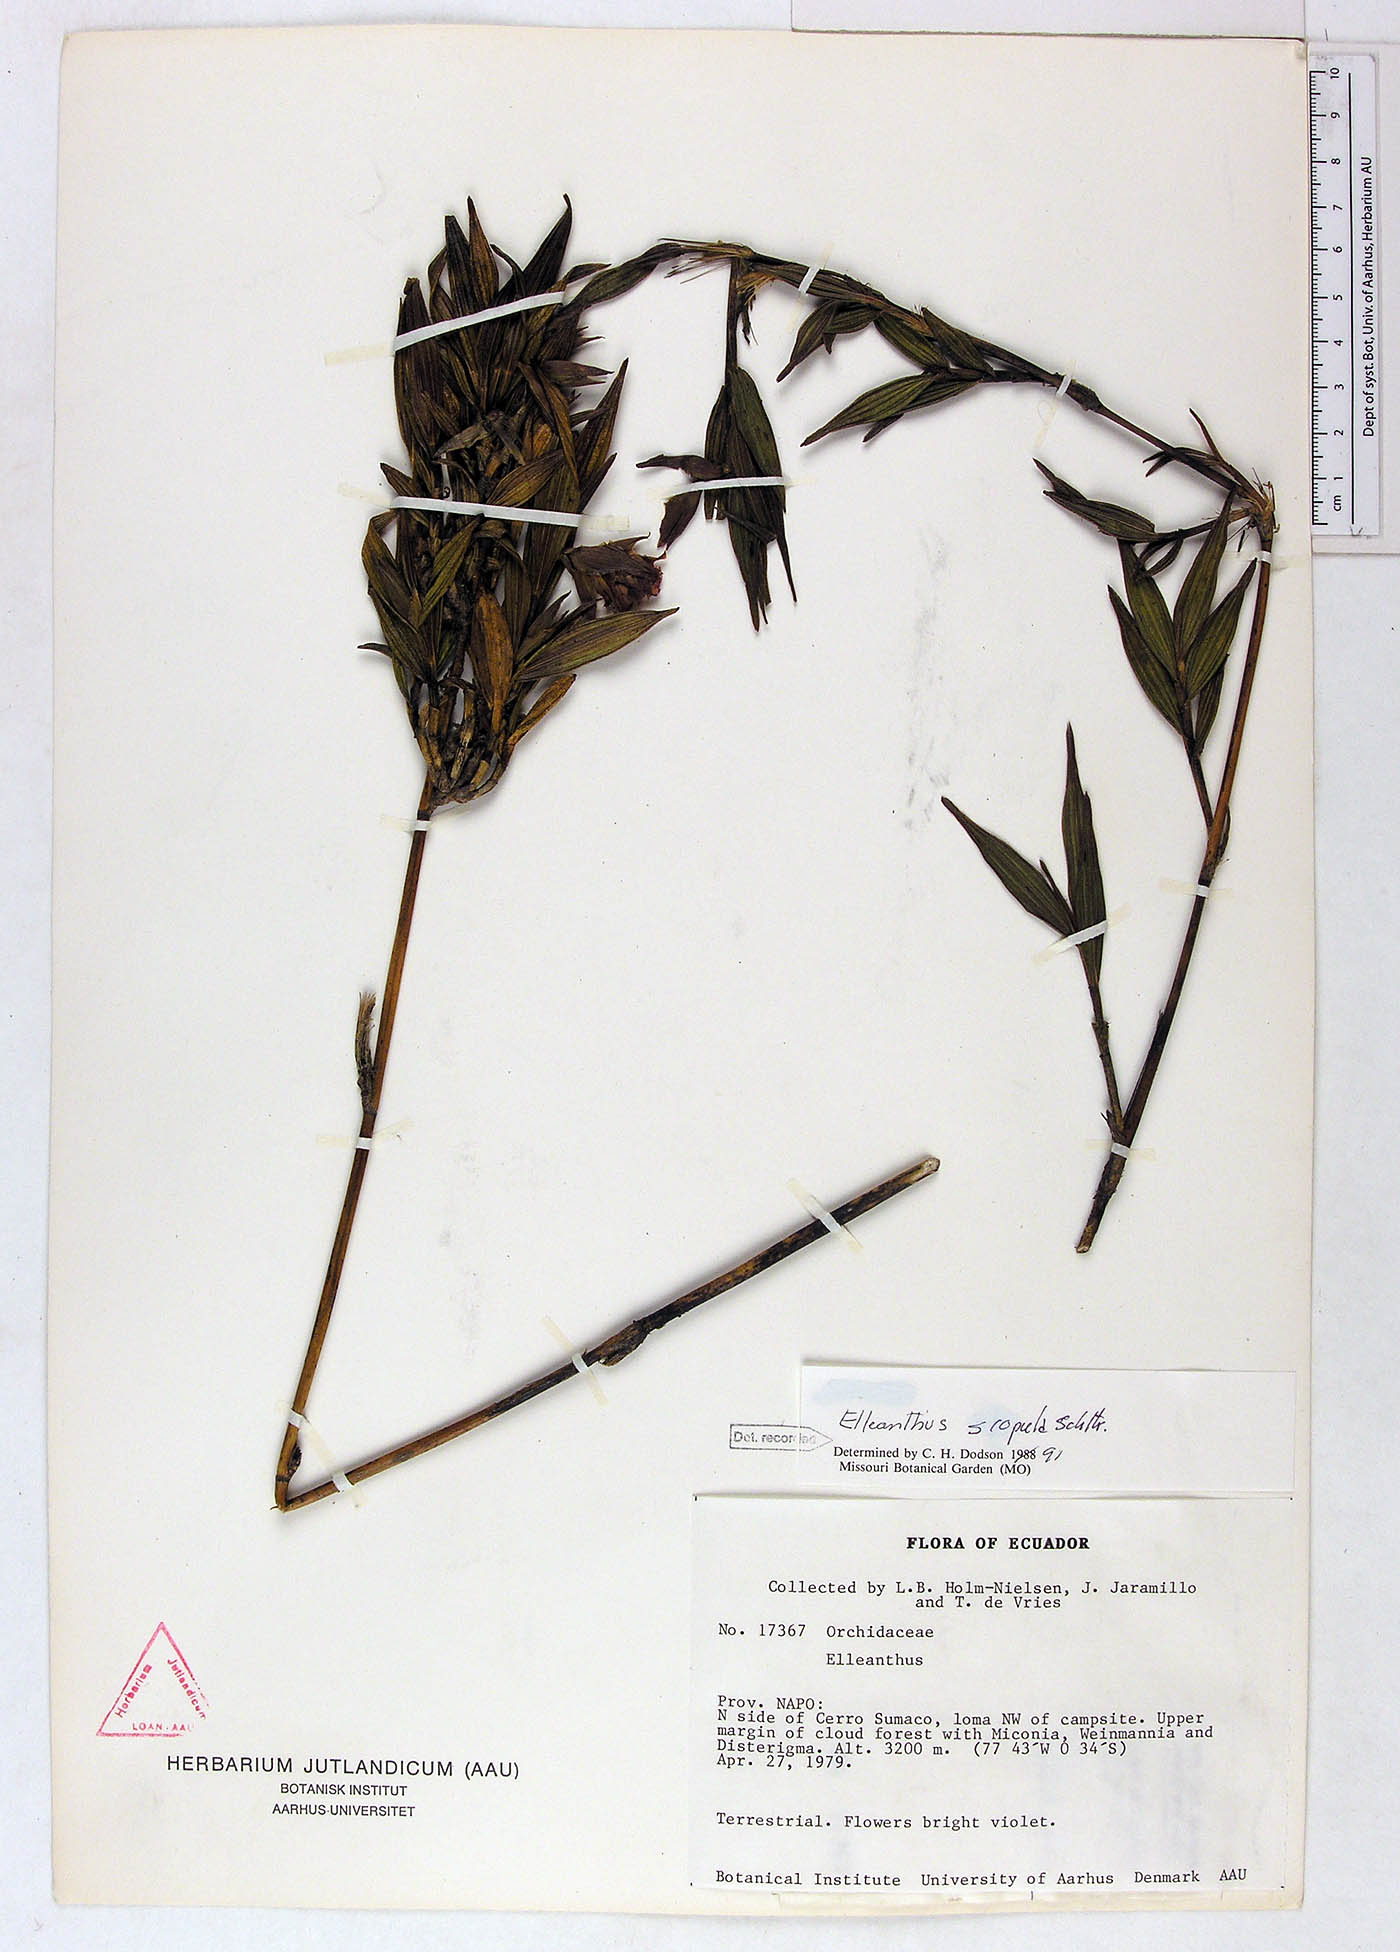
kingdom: Plantae
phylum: Tracheophyta
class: Liliopsida
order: Asparagales
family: Orchidaceae
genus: Elleanthus
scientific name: Elleanthus scopula
